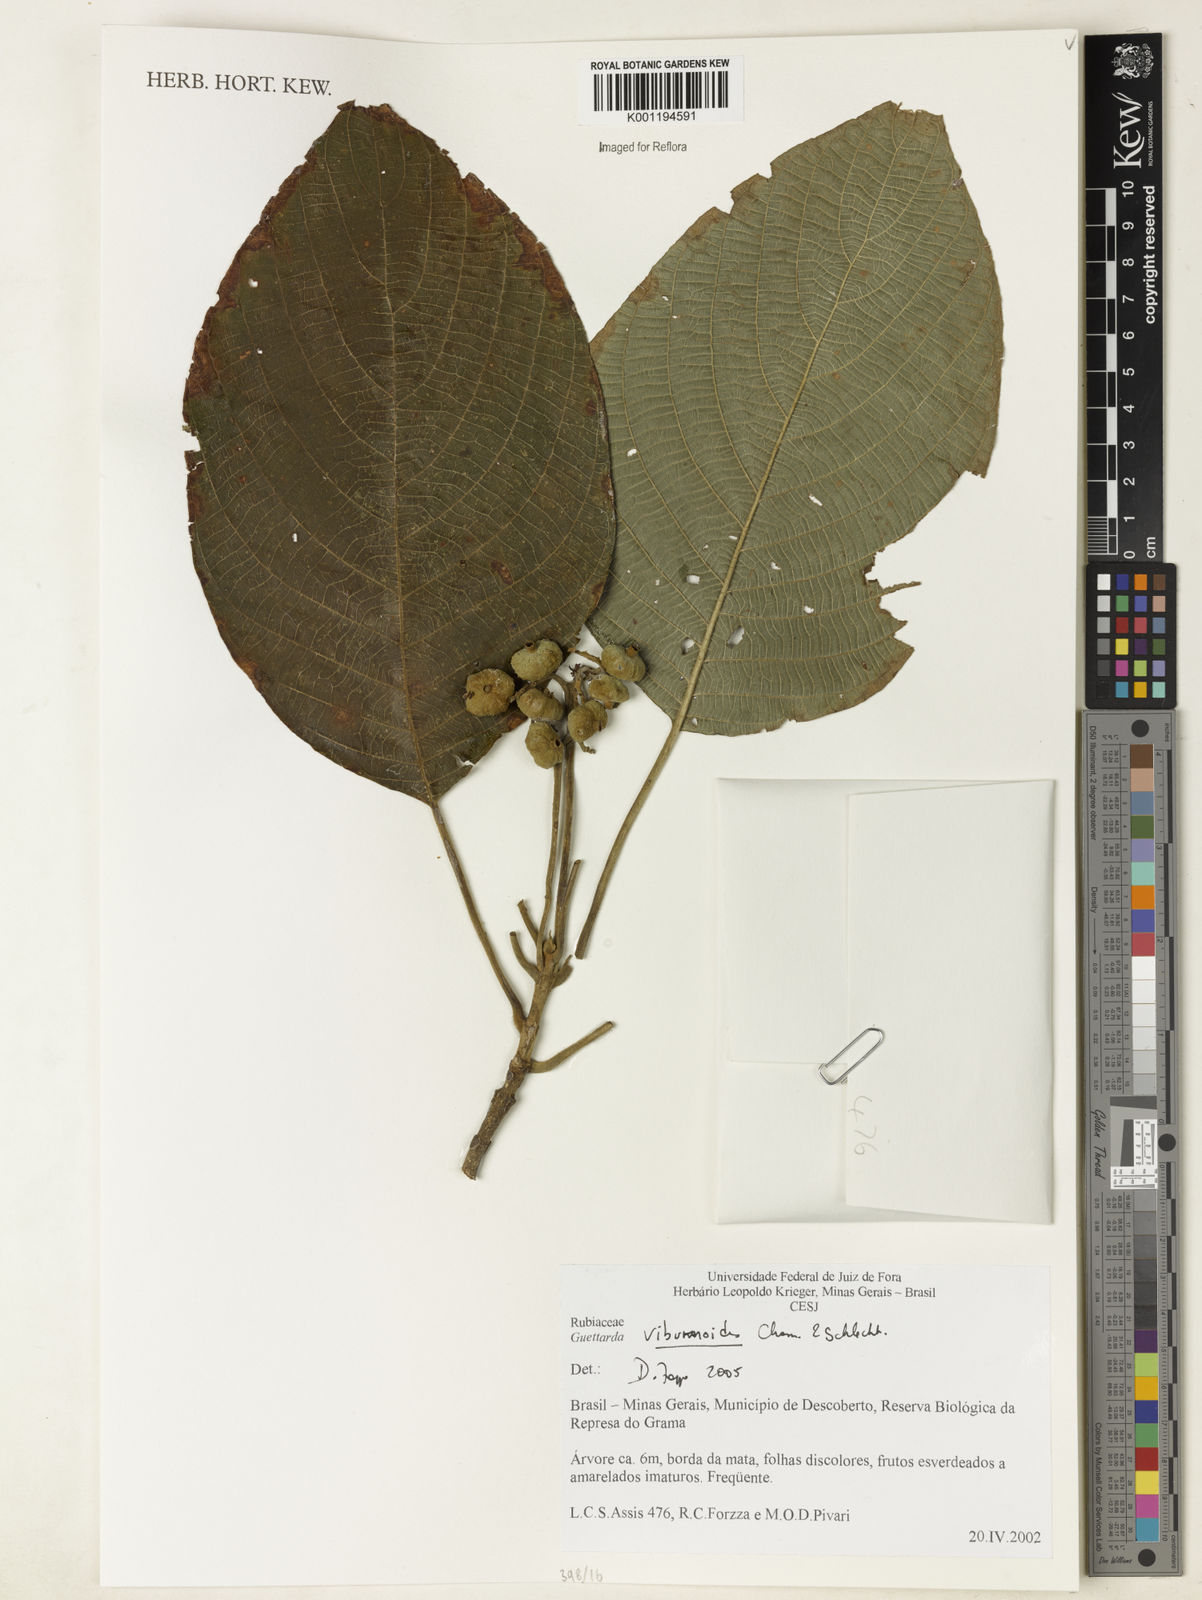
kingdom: Plantae
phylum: Tracheophyta
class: Magnoliopsida
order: Gentianales
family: Rubiaceae
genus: Guettarda
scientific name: Guettarda viburnoides
